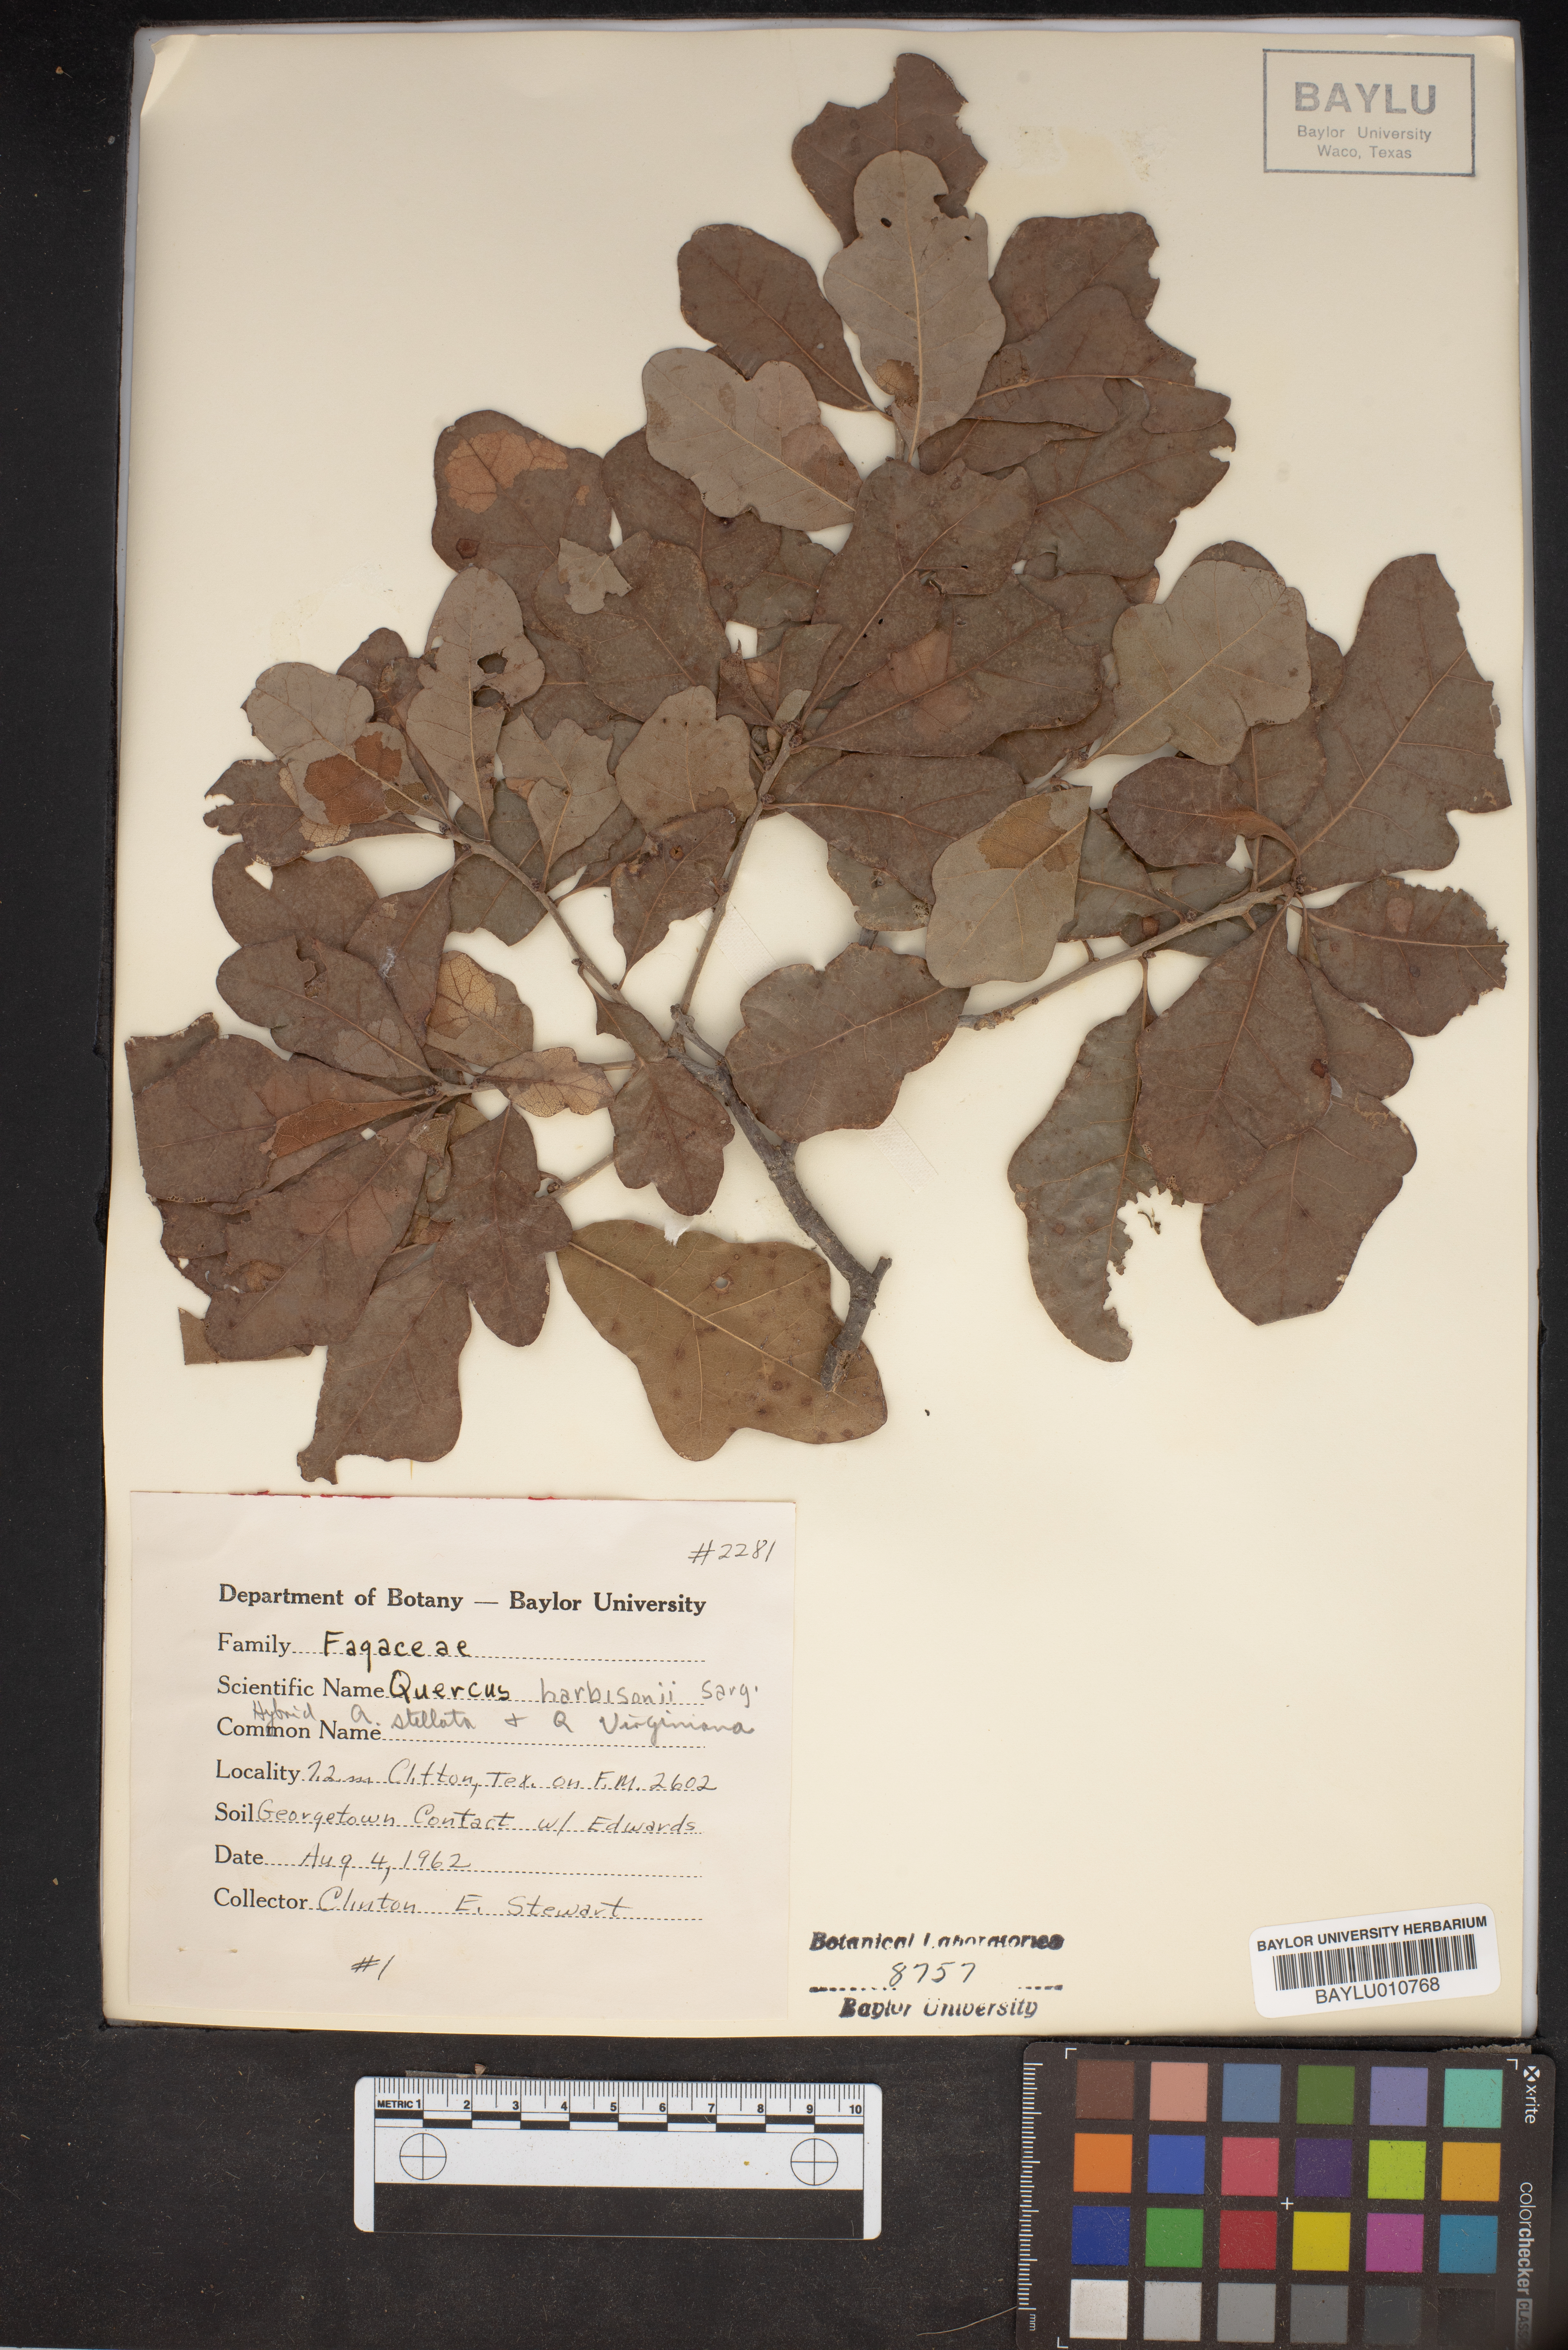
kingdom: Plantae
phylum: Tracheophyta
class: Magnoliopsida
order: Fagales
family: Fagaceae
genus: Quercus
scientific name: Quercus harbisonii
